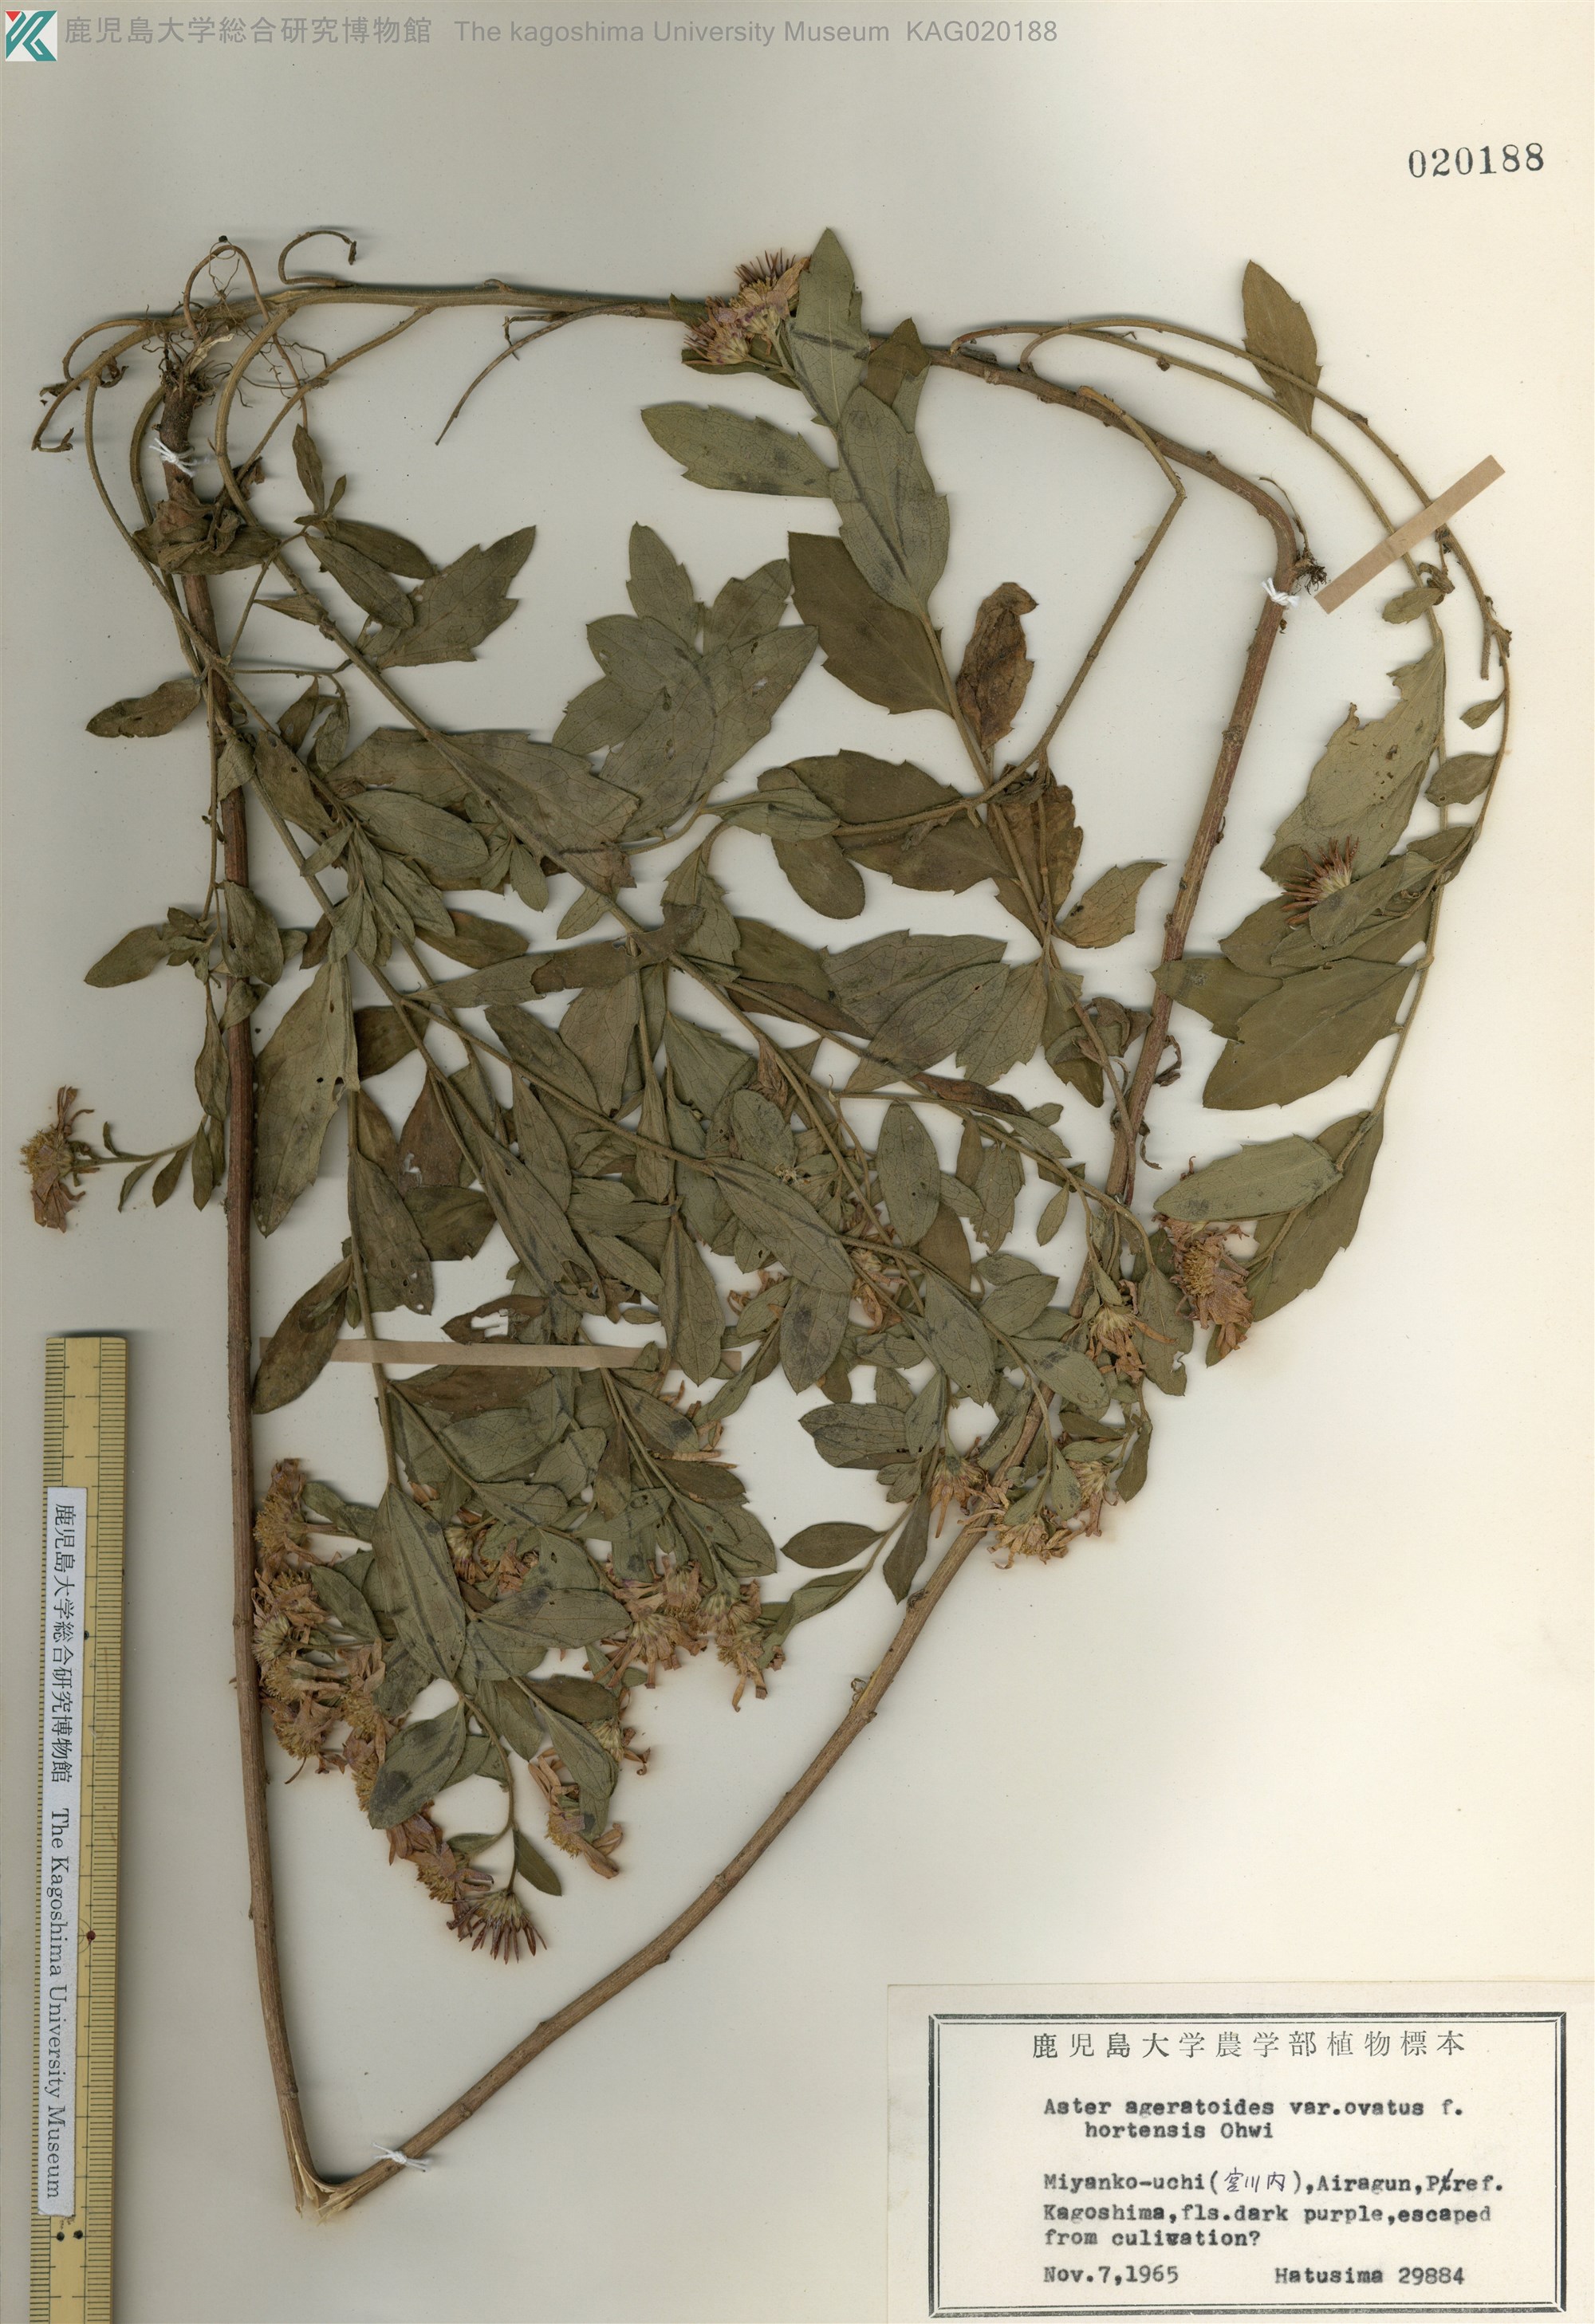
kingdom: Plantae
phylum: Tracheophyta
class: Magnoliopsida
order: Asterales
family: Asteraceae
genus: Aster
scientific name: Aster microcephalus
